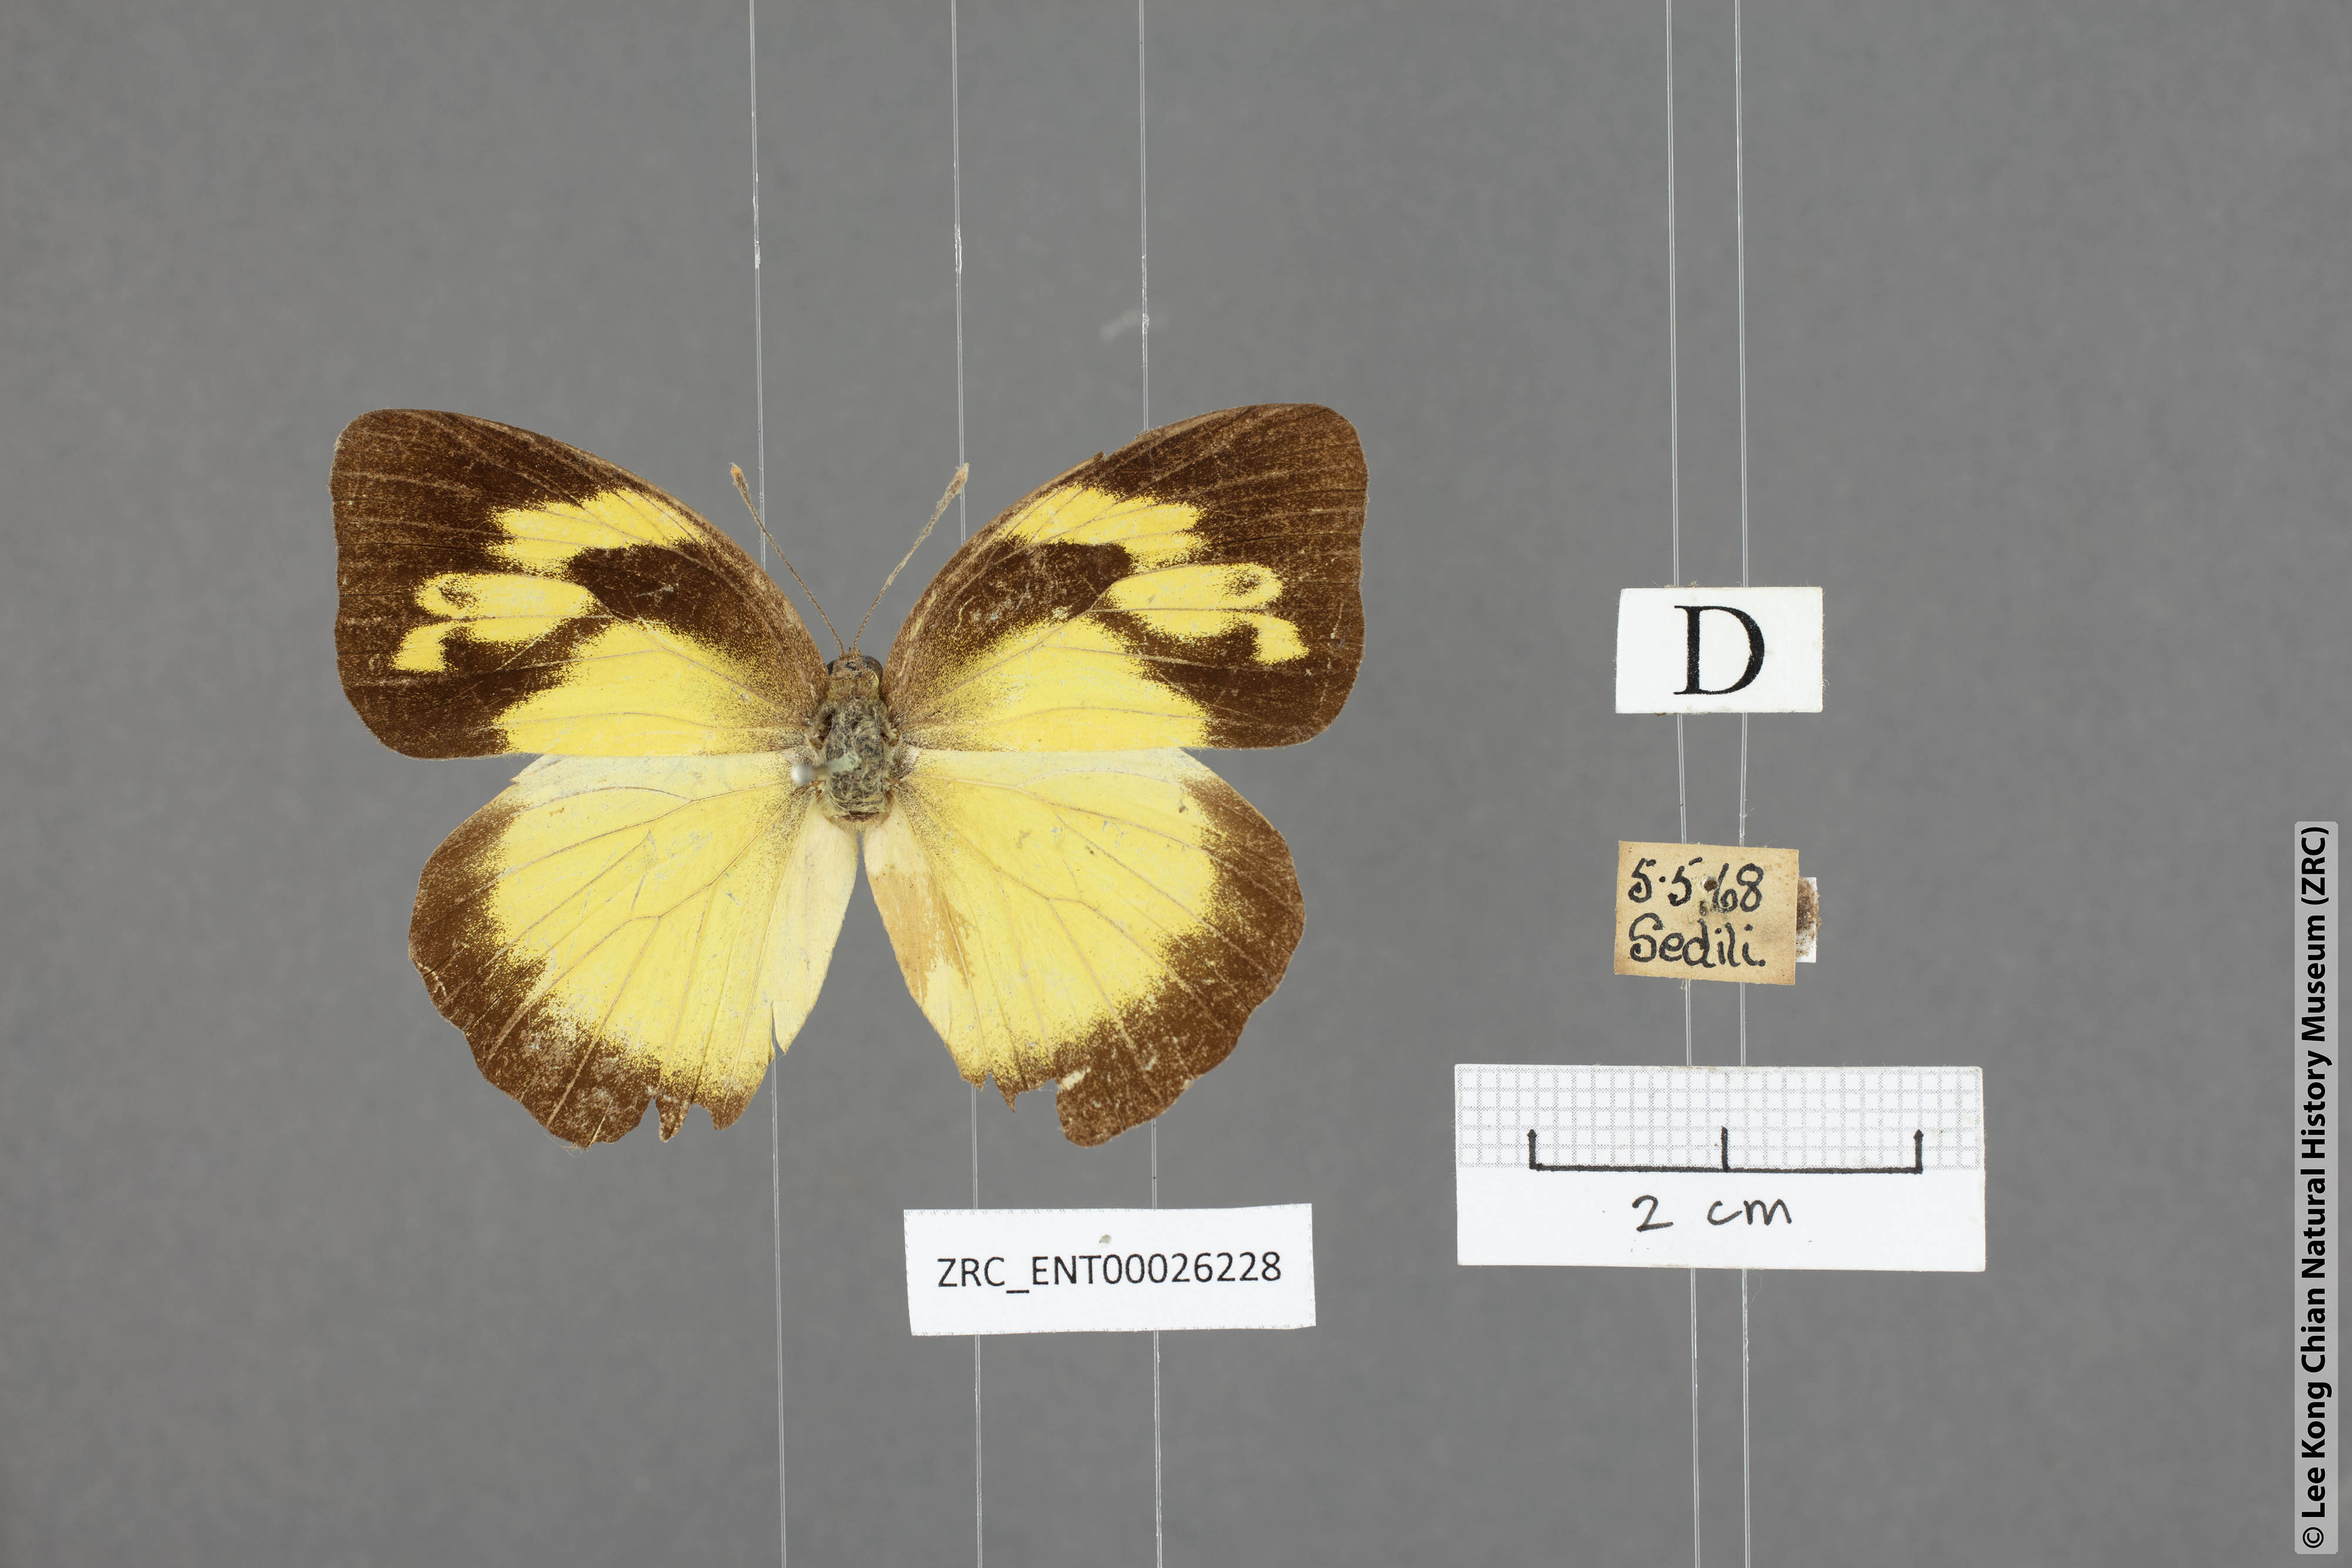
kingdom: Animalia
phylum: Arthropoda
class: Insecta
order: Lepidoptera
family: Pieridae
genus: Ixias
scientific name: Ixias pyrene
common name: Yellow orange tip
